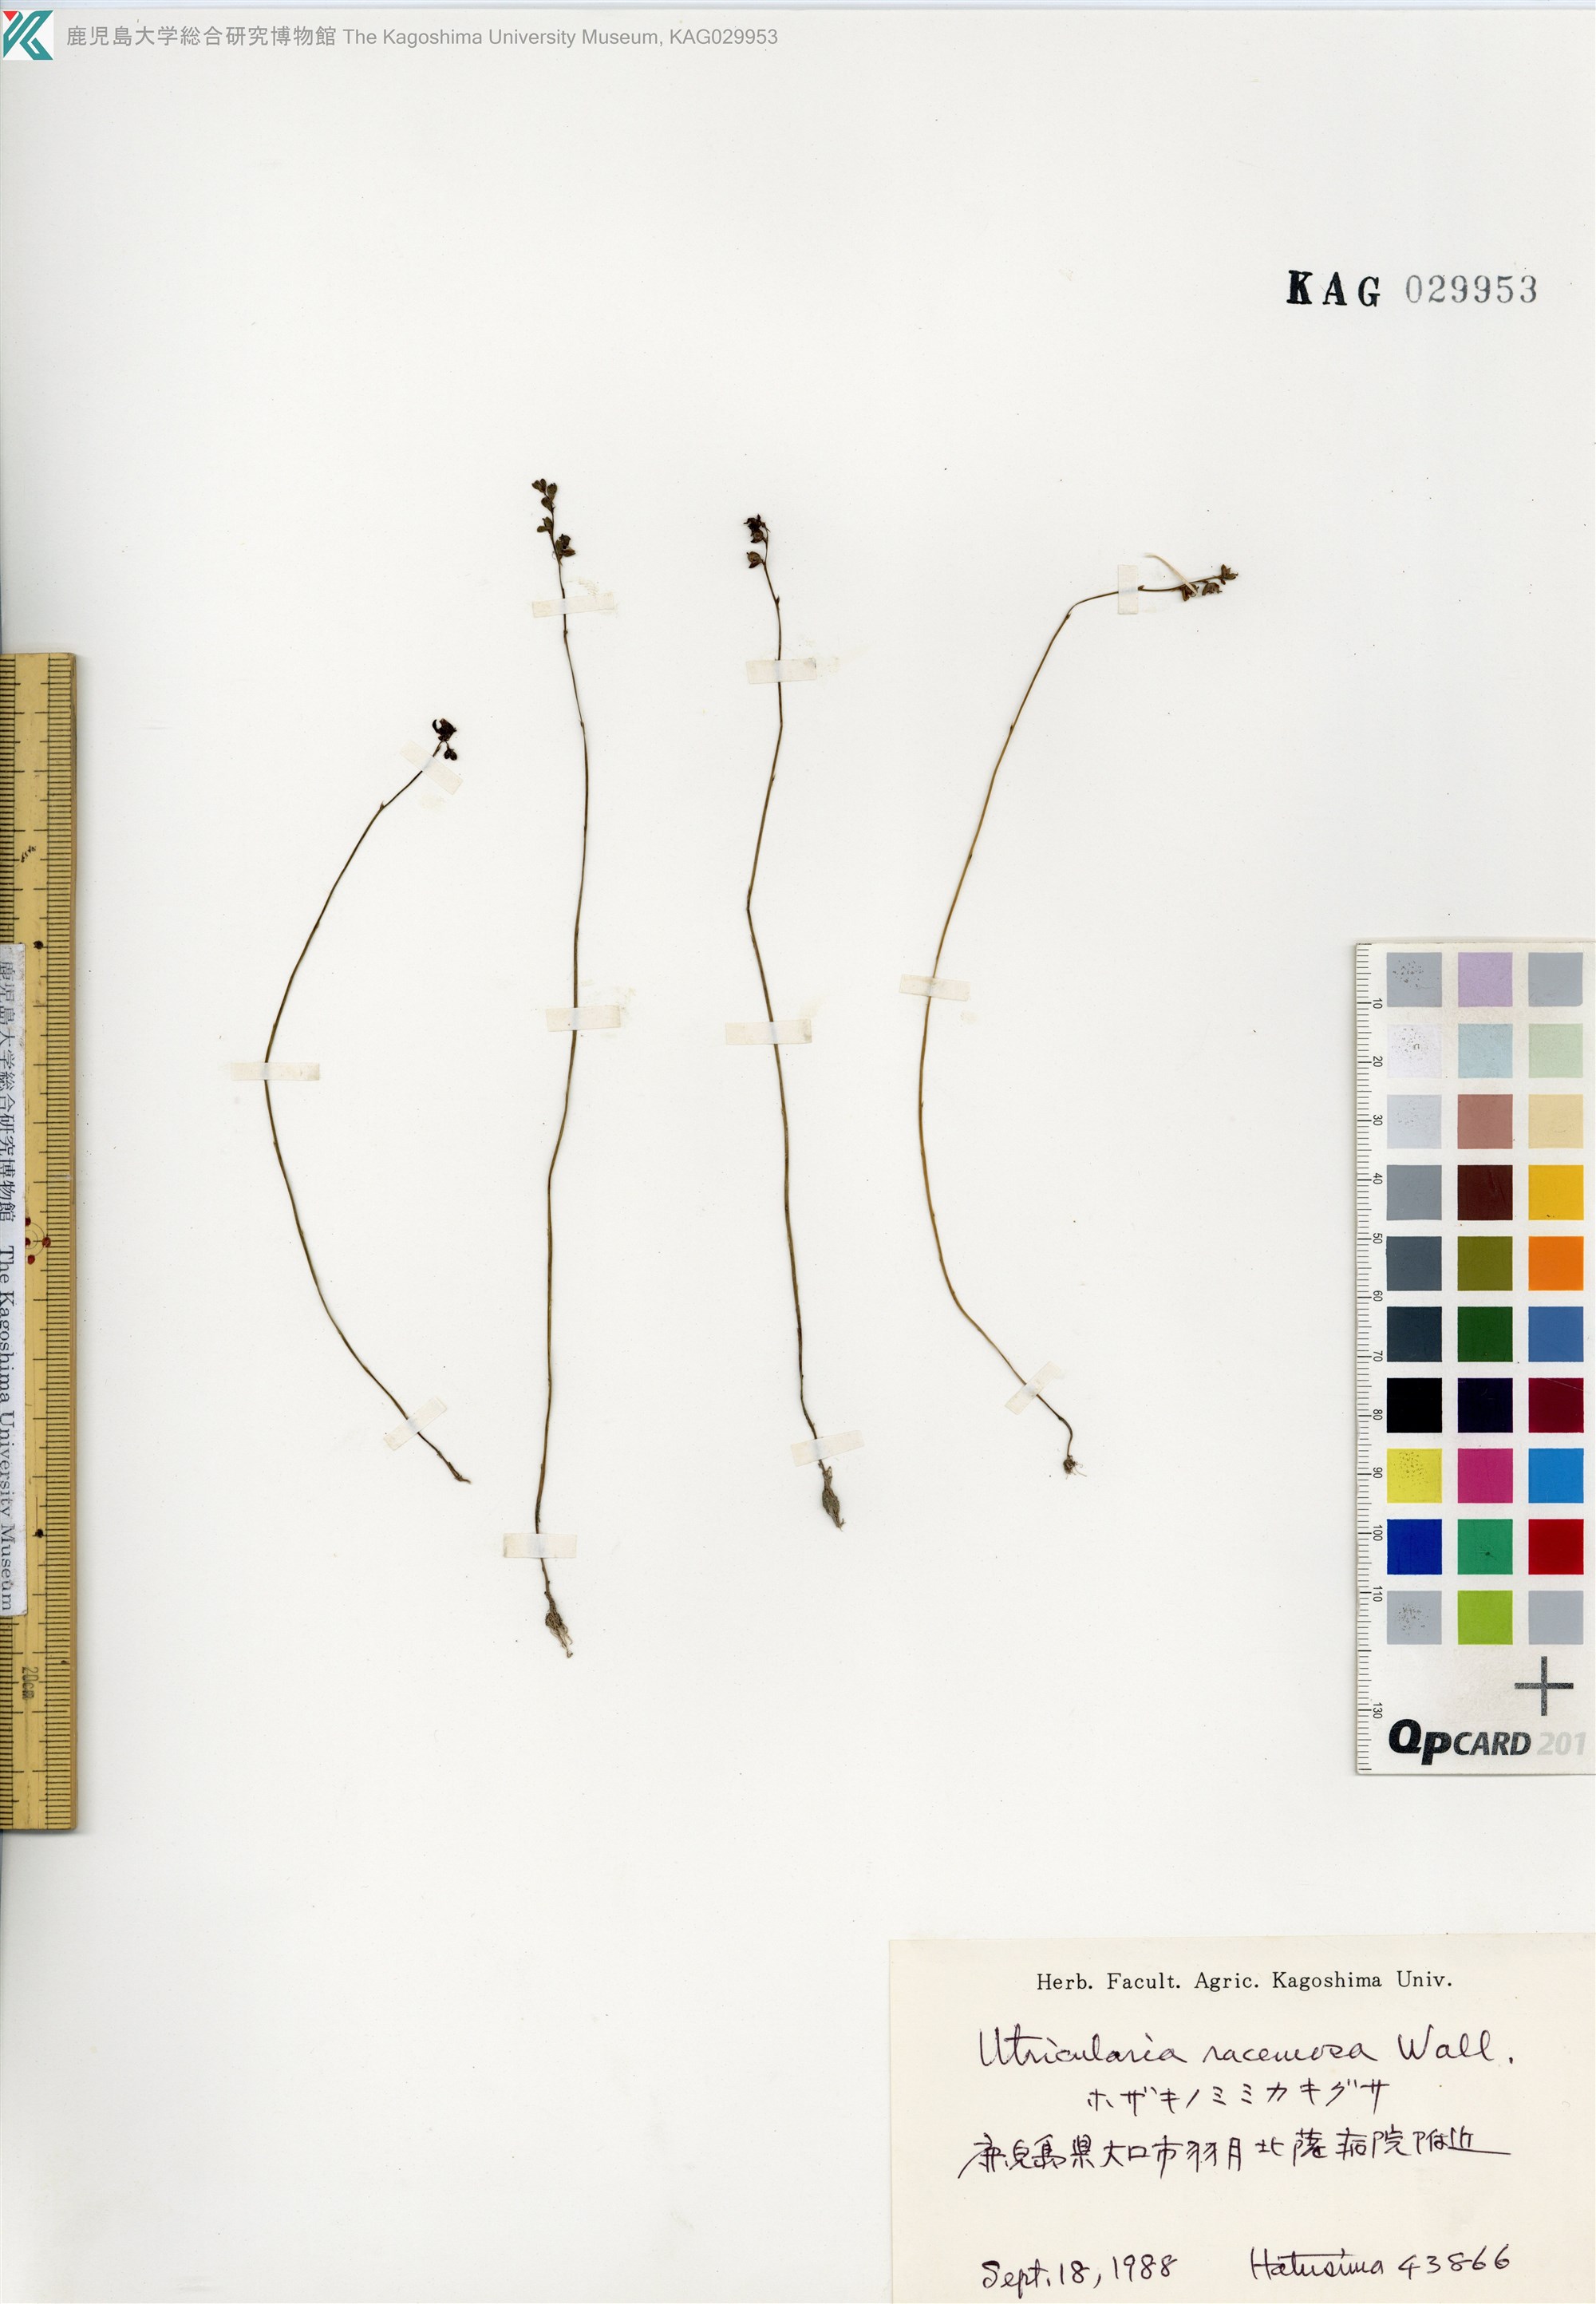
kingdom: Plantae
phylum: Tracheophyta
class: Magnoliopsida
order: Lamiales
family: Lentibulariaceae
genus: Utricularia
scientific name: Utricularia caerulea
